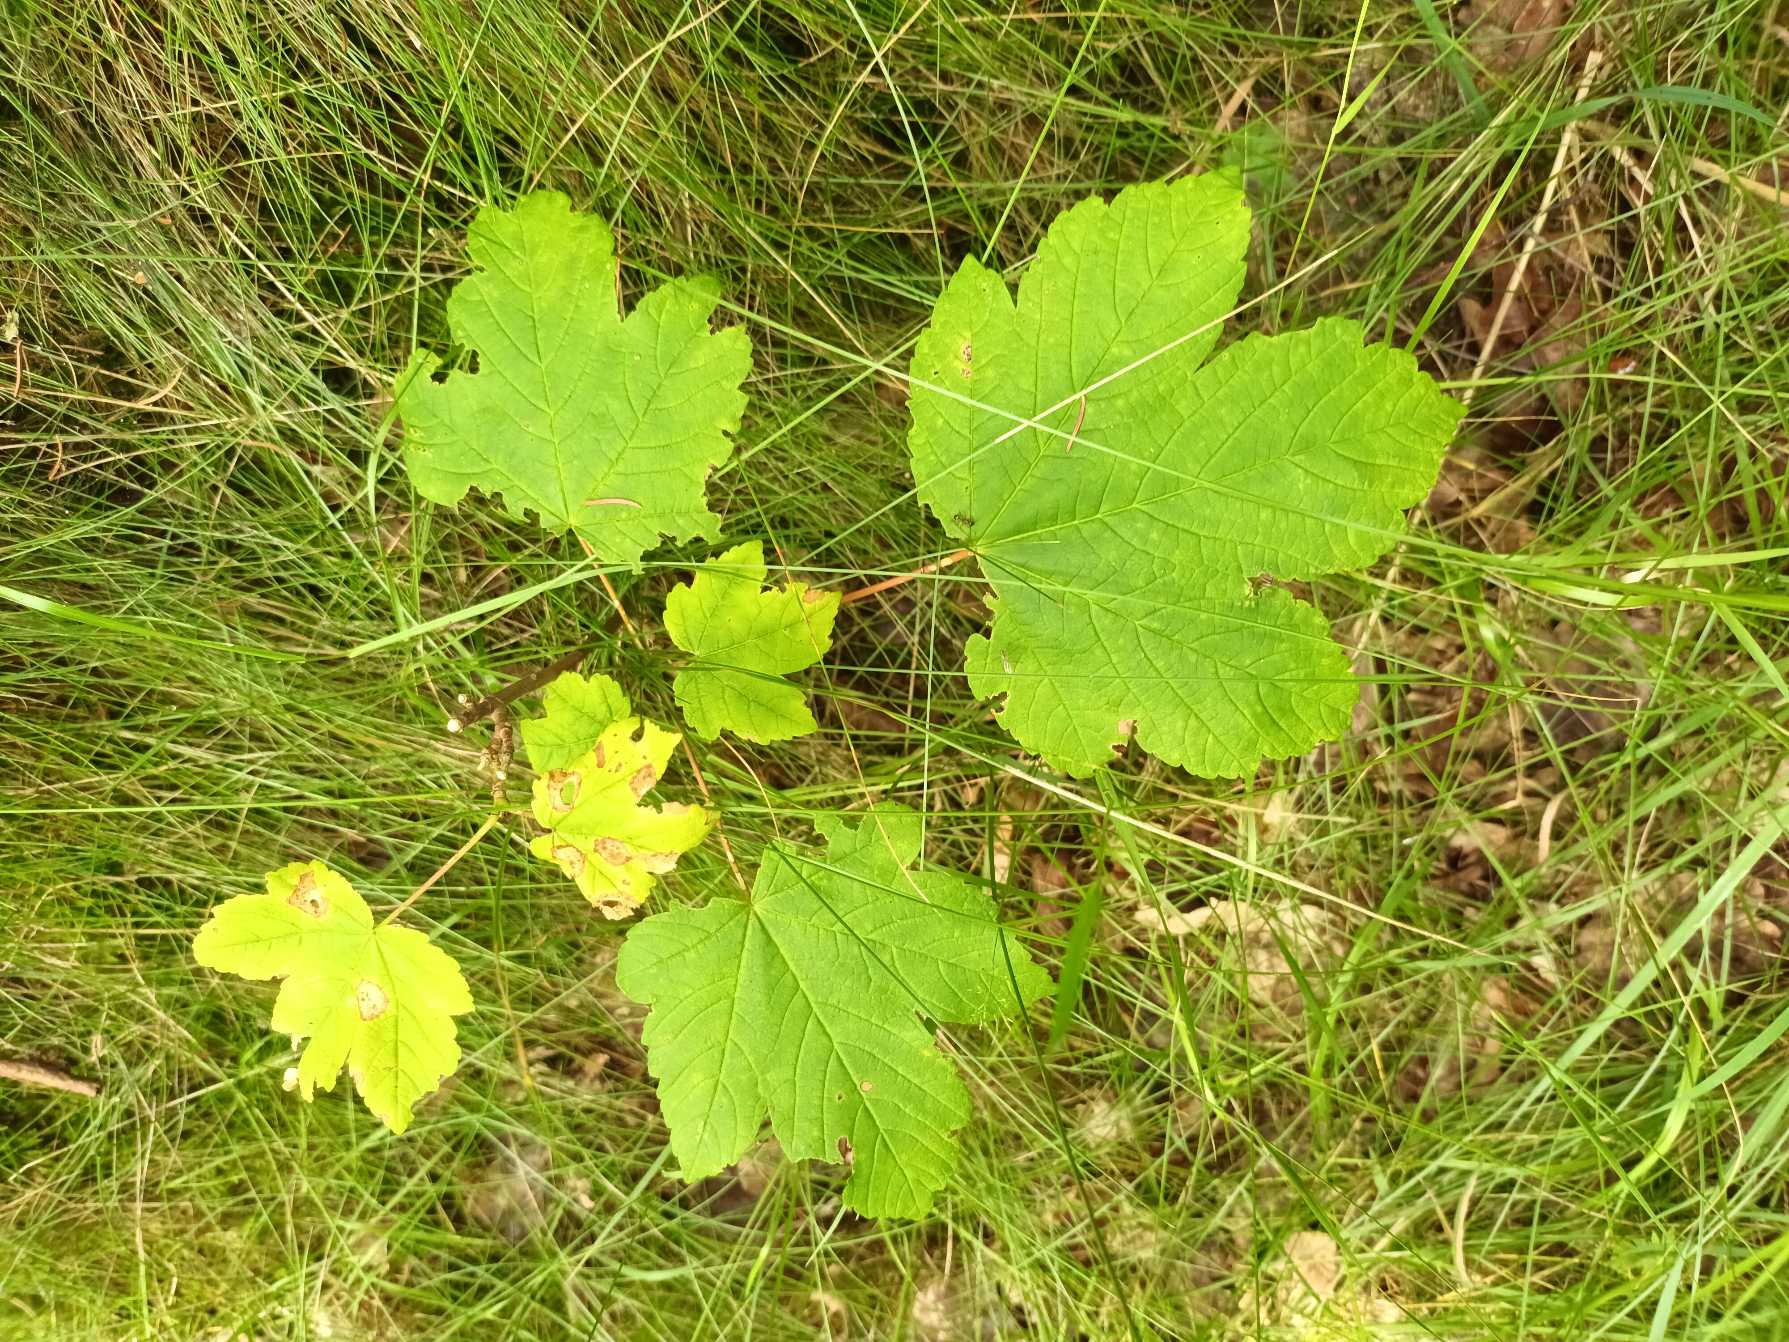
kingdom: Plantae
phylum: Tracheophyta
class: Magnoliopsida
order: Sapindales
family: Sapindaceae
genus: Acer
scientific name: Acer pseudoplatanus
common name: Ahorn
